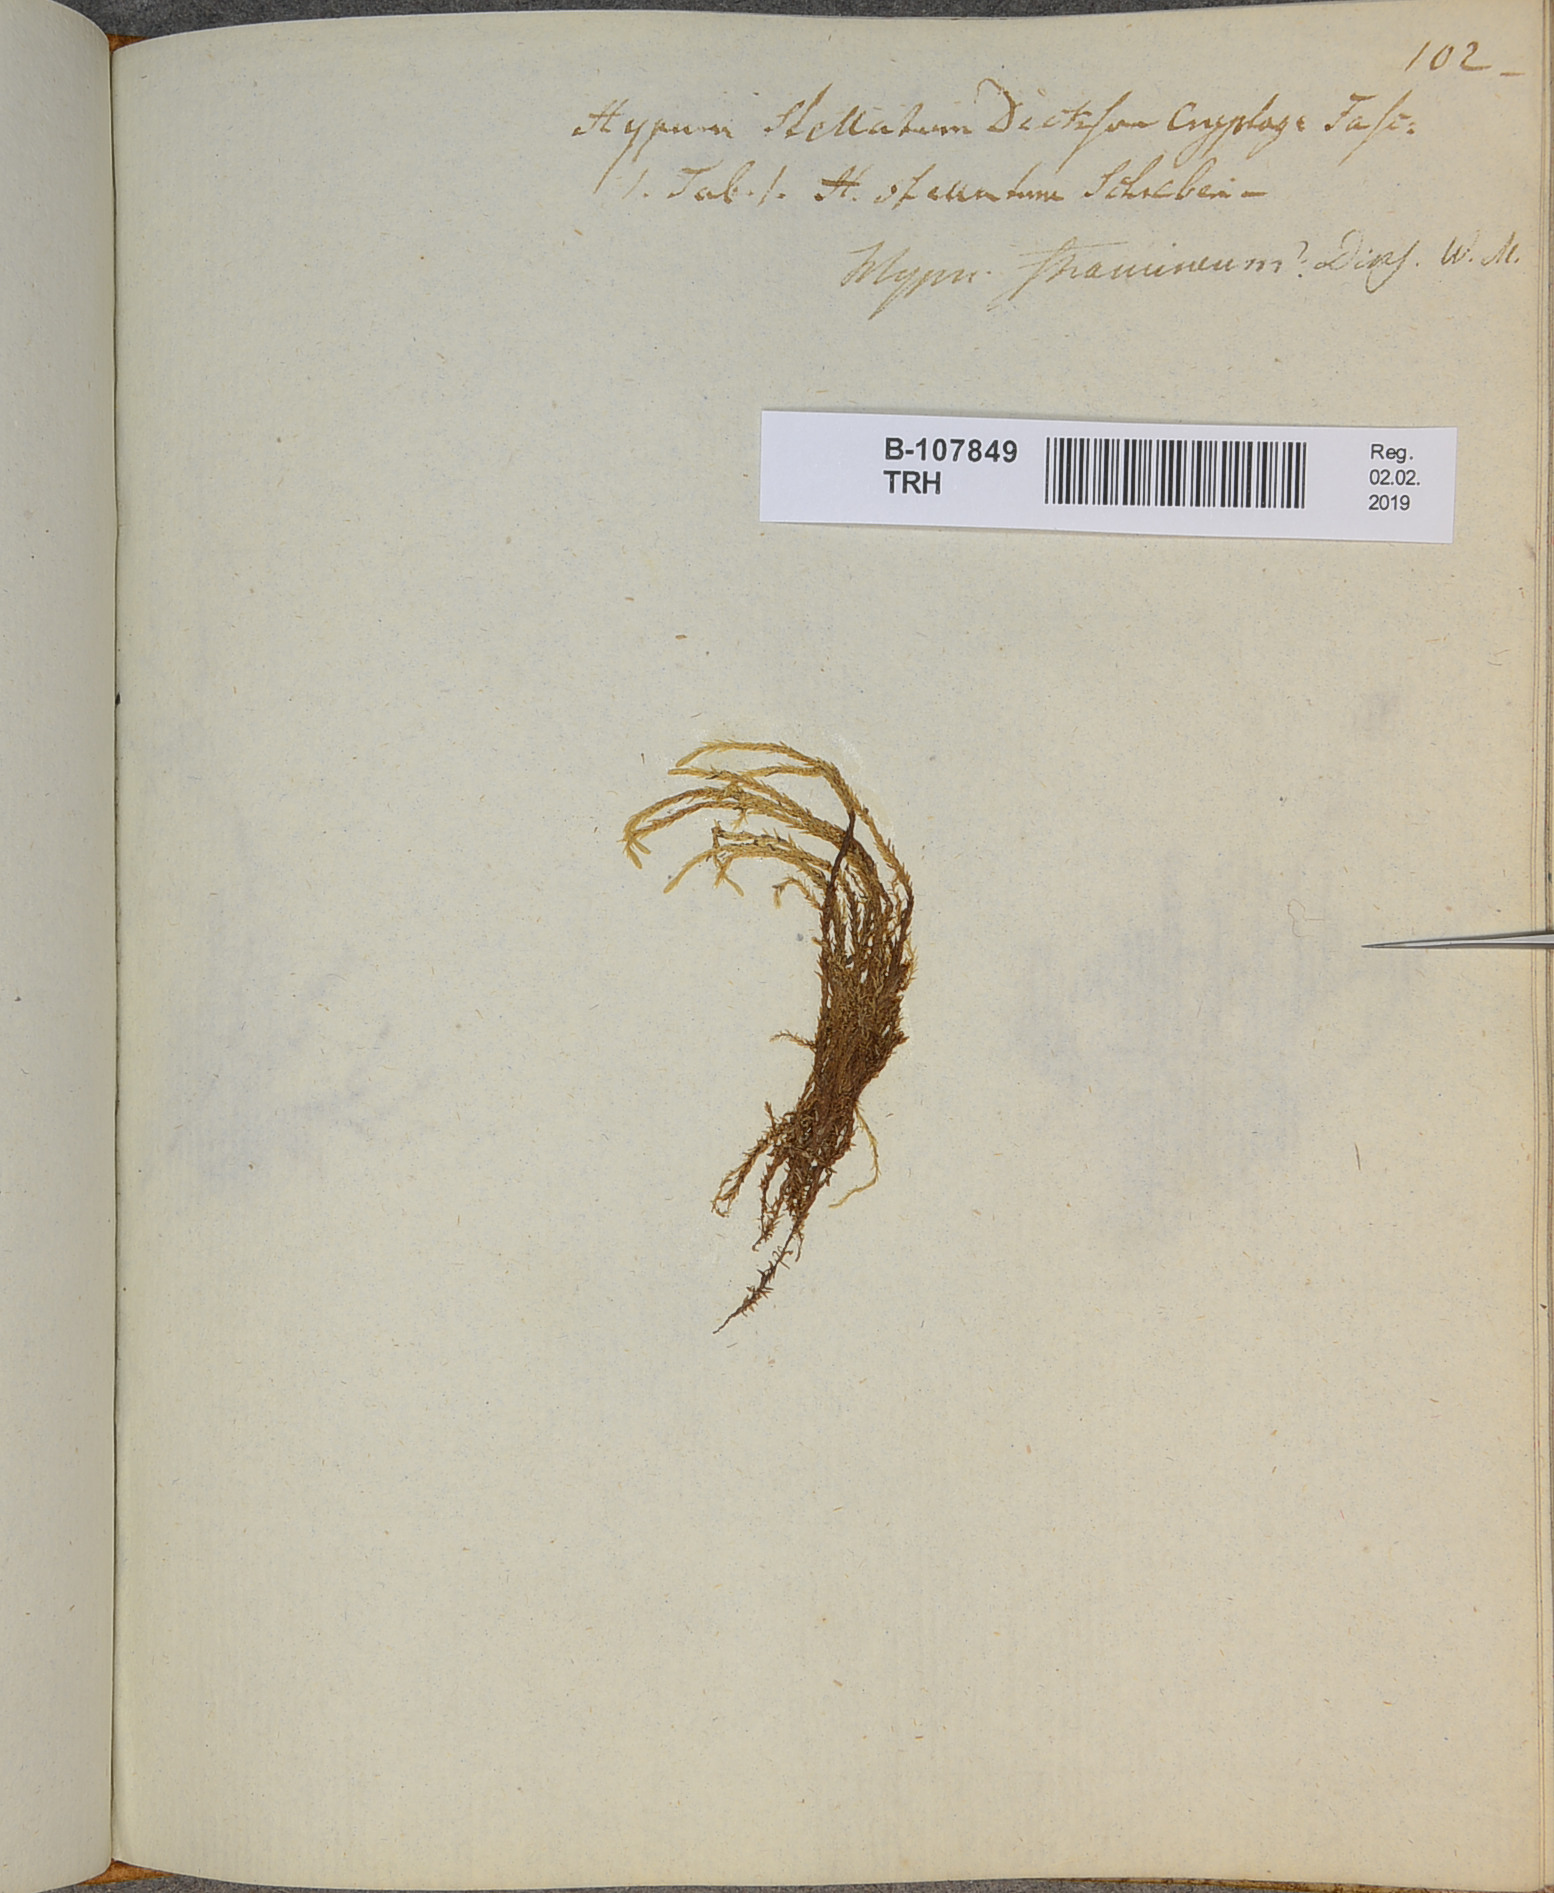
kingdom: Plantae
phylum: Bryophyta
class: Bryopsida
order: Hypnales
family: Calliergonaceae
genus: Straminergon
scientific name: Straminergon stramineum
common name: Straw moss
